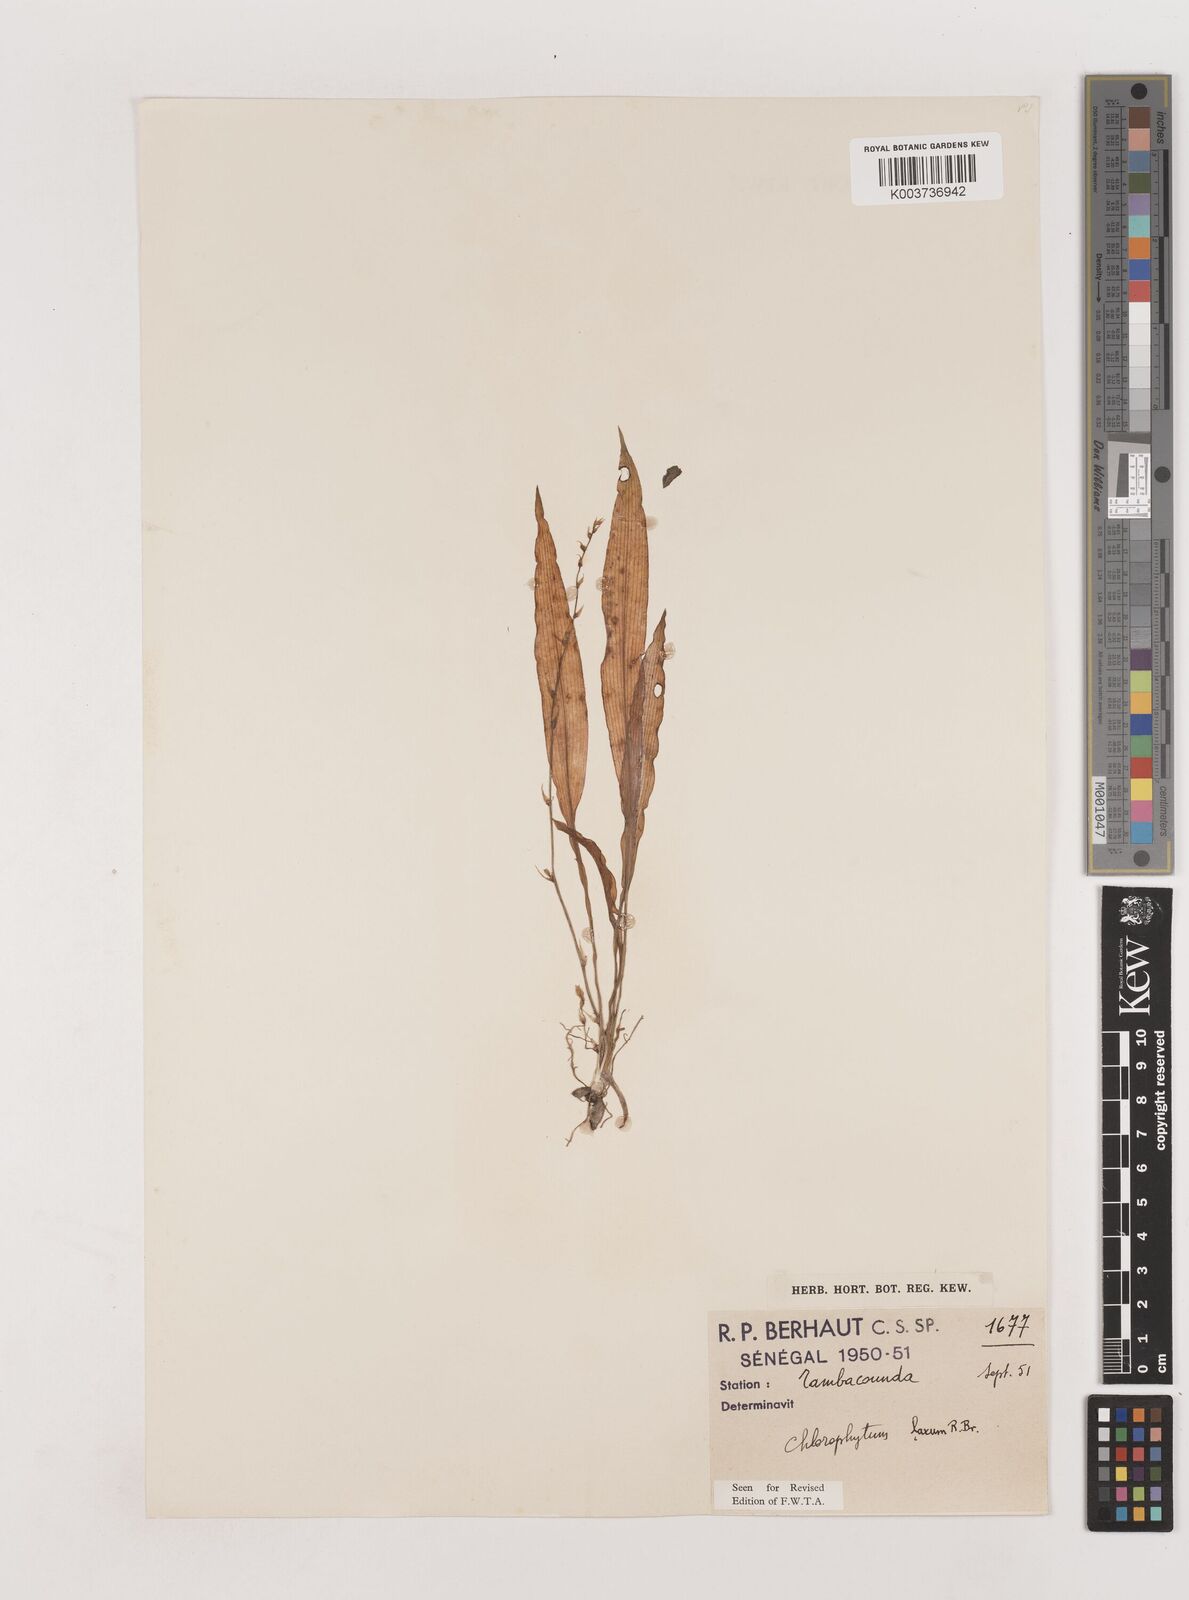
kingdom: Plantae
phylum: Tracheophyta
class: Liliopsida
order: Asparagales
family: Asparagaceae
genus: Chlorophytum
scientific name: Chlorophytum laxum
